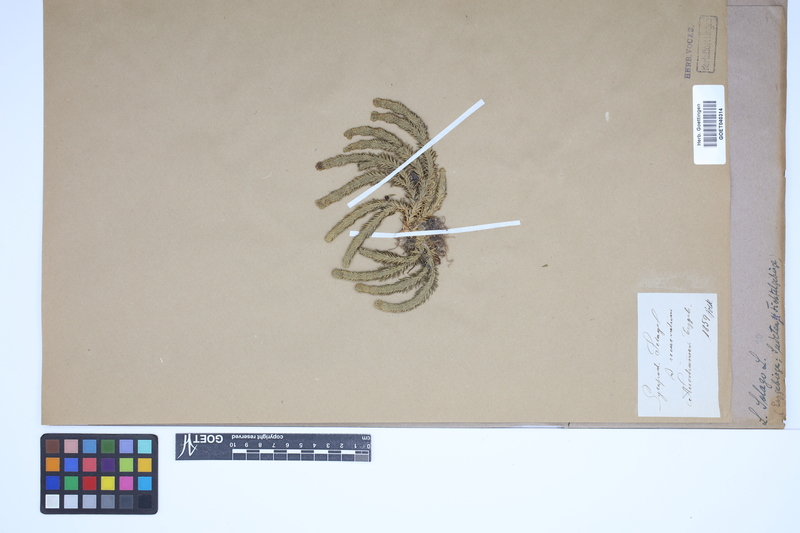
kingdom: Plantae
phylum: Tracheophyta
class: Lycopodiopsida
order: Lycopodiales
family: Lycopodiaceae
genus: Huperzia
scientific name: Huperzia selago
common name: Northern firmoss
